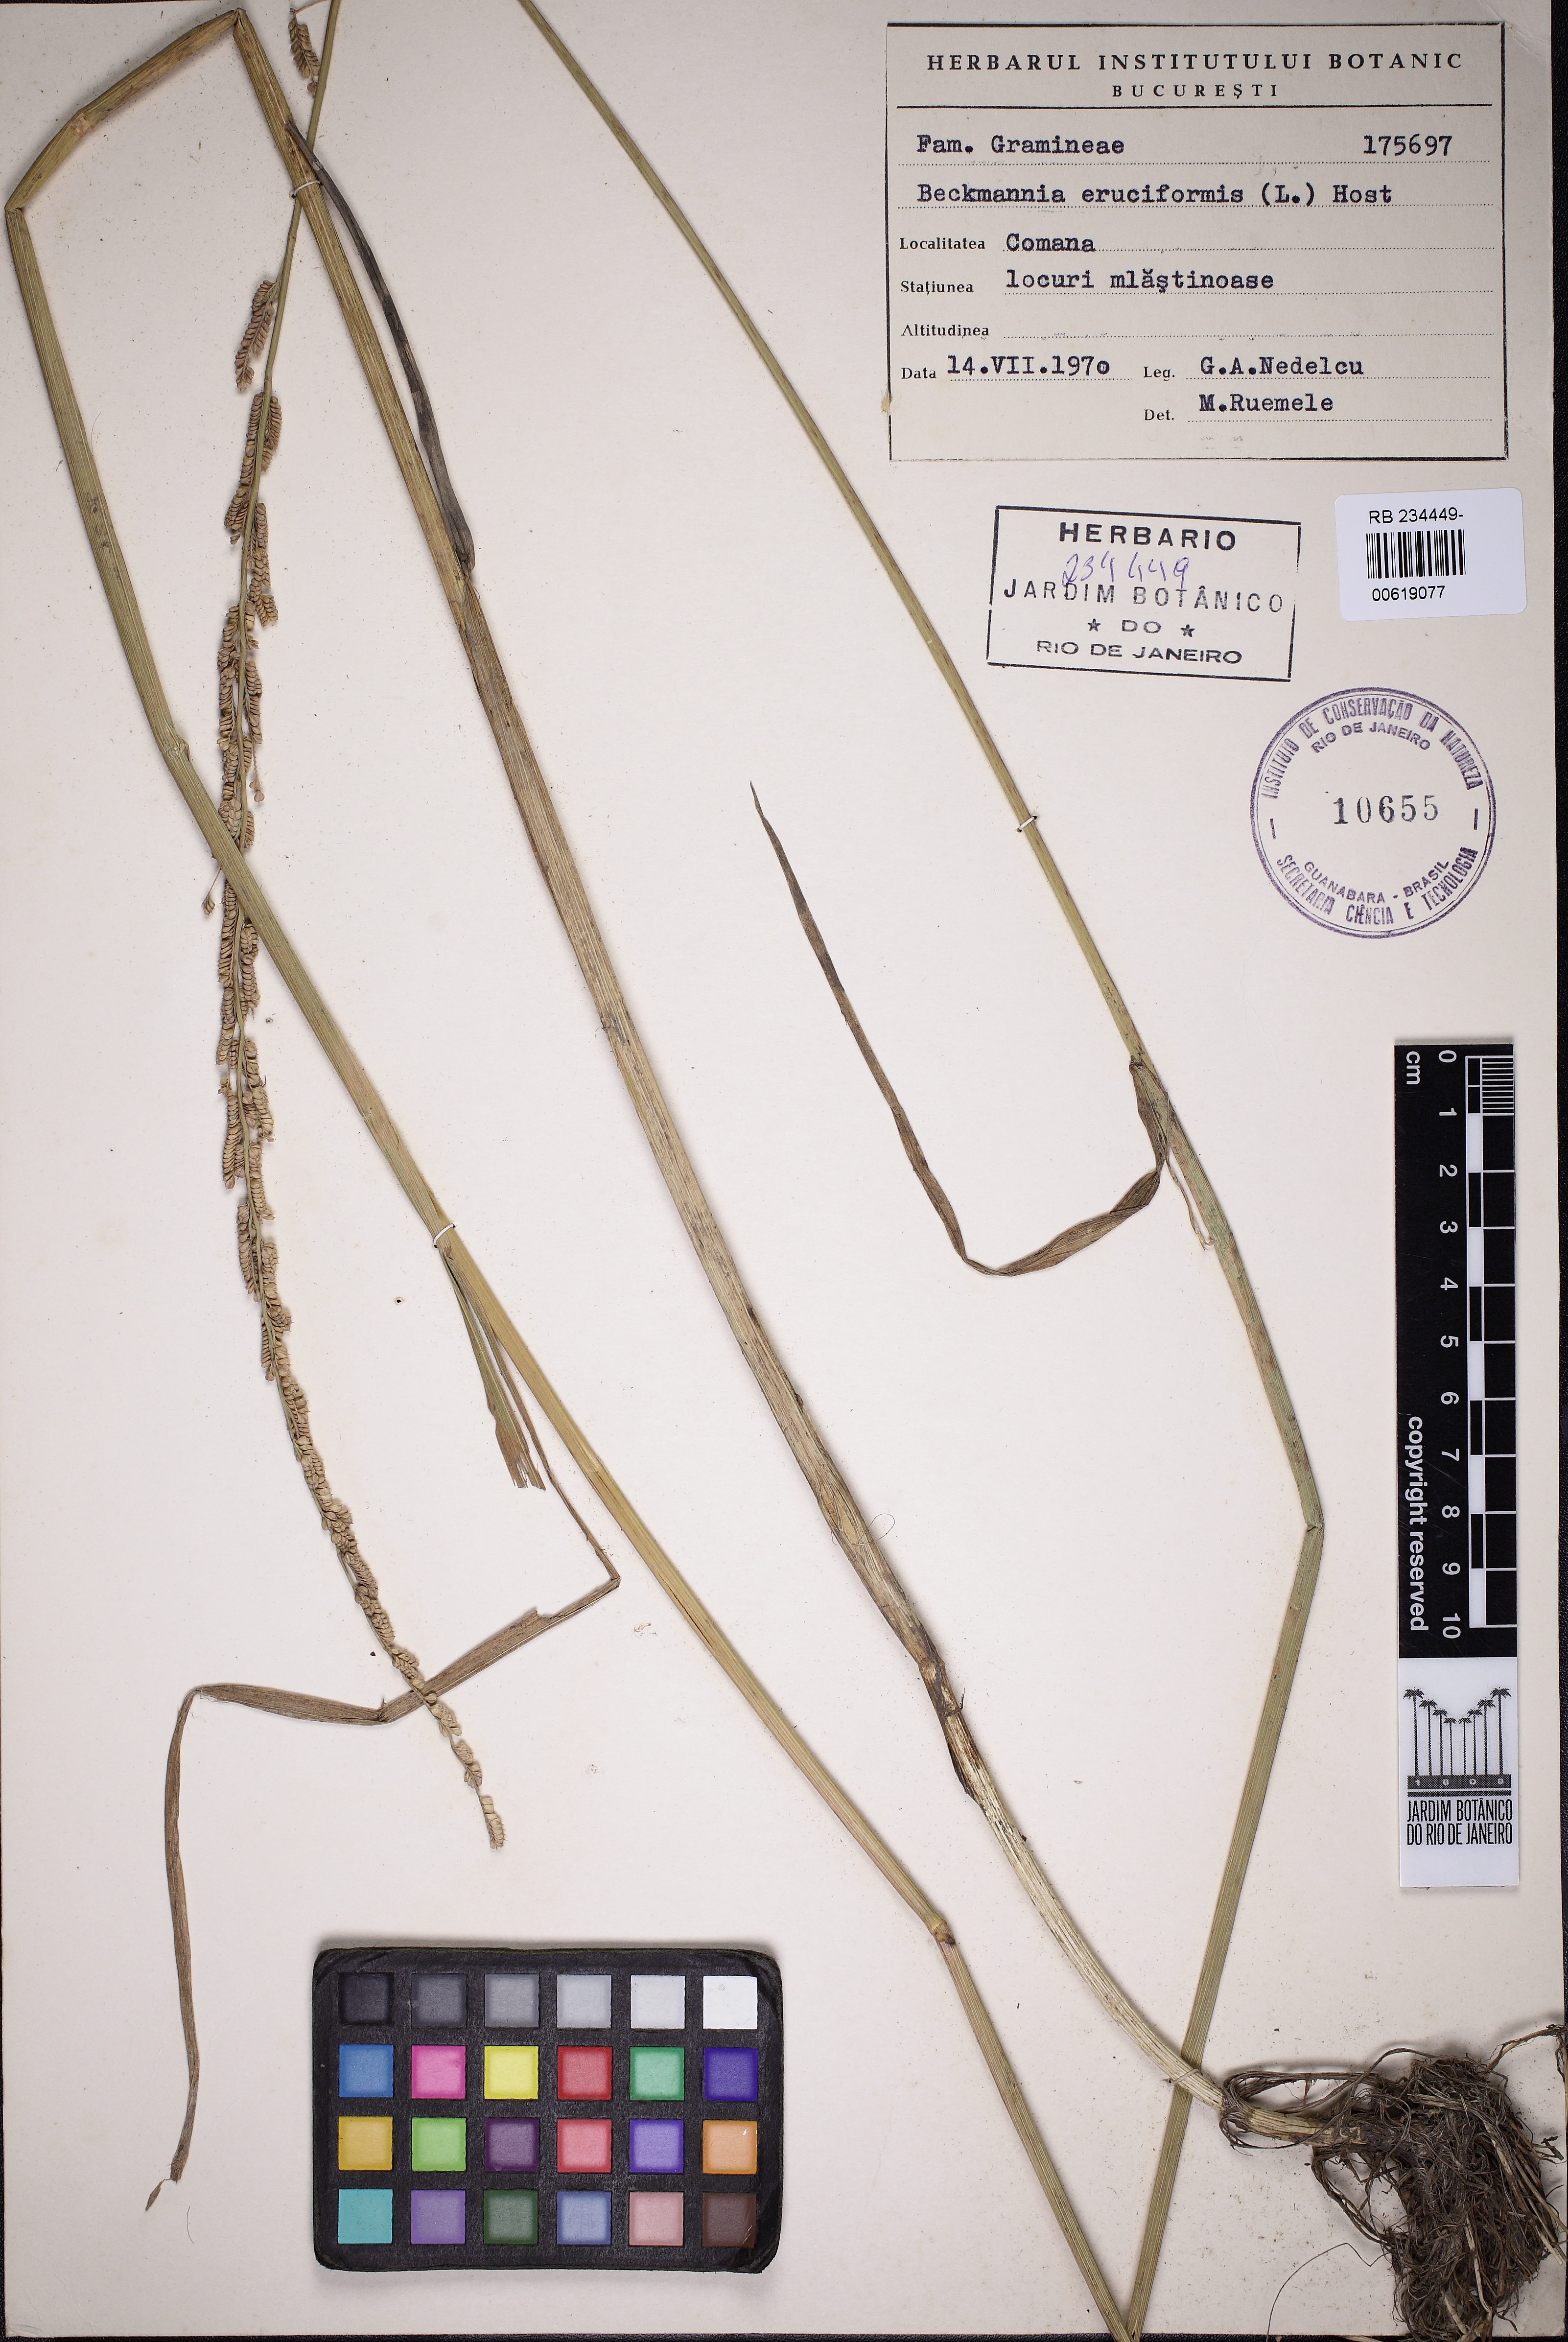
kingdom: Plantae
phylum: Tracheophyta
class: Liliopsida
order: Poales
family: Poaceae
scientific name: Poaceae
